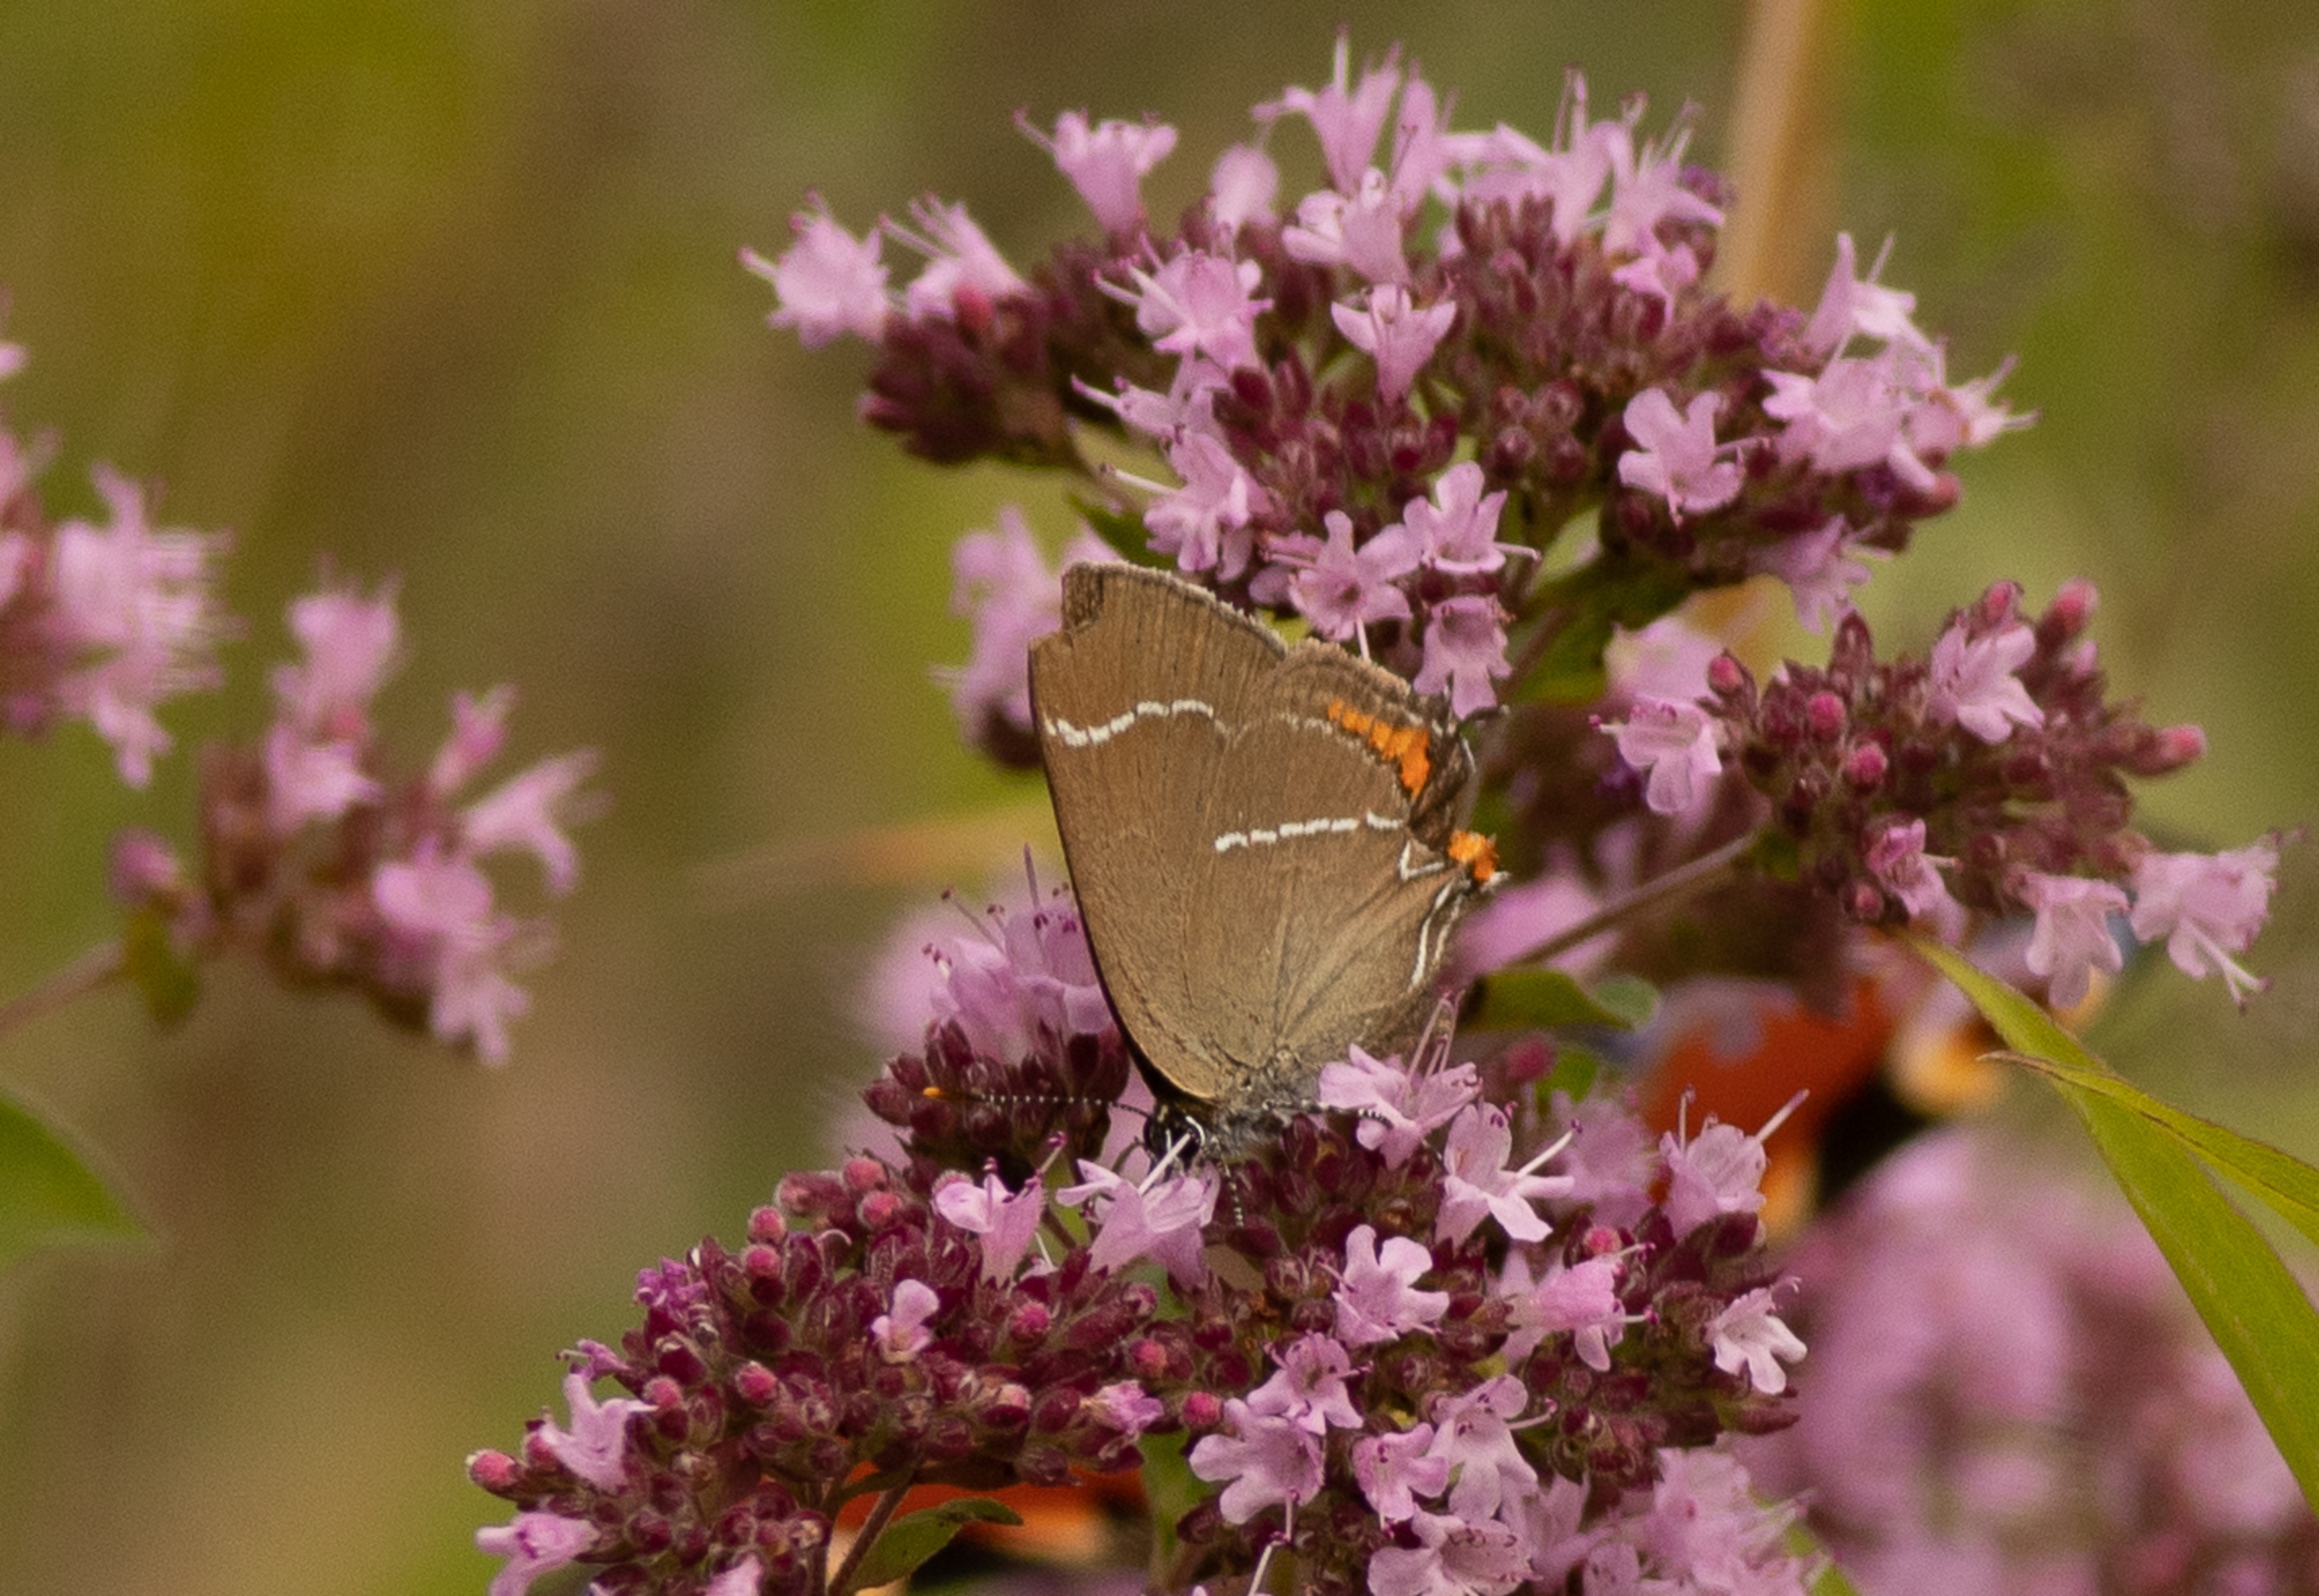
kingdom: Animalia
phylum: Arthropoda
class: Insecta
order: Lepidoptera
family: Lycaenidae
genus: Satyrium
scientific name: Satyrium w-album
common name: Det hvide W
